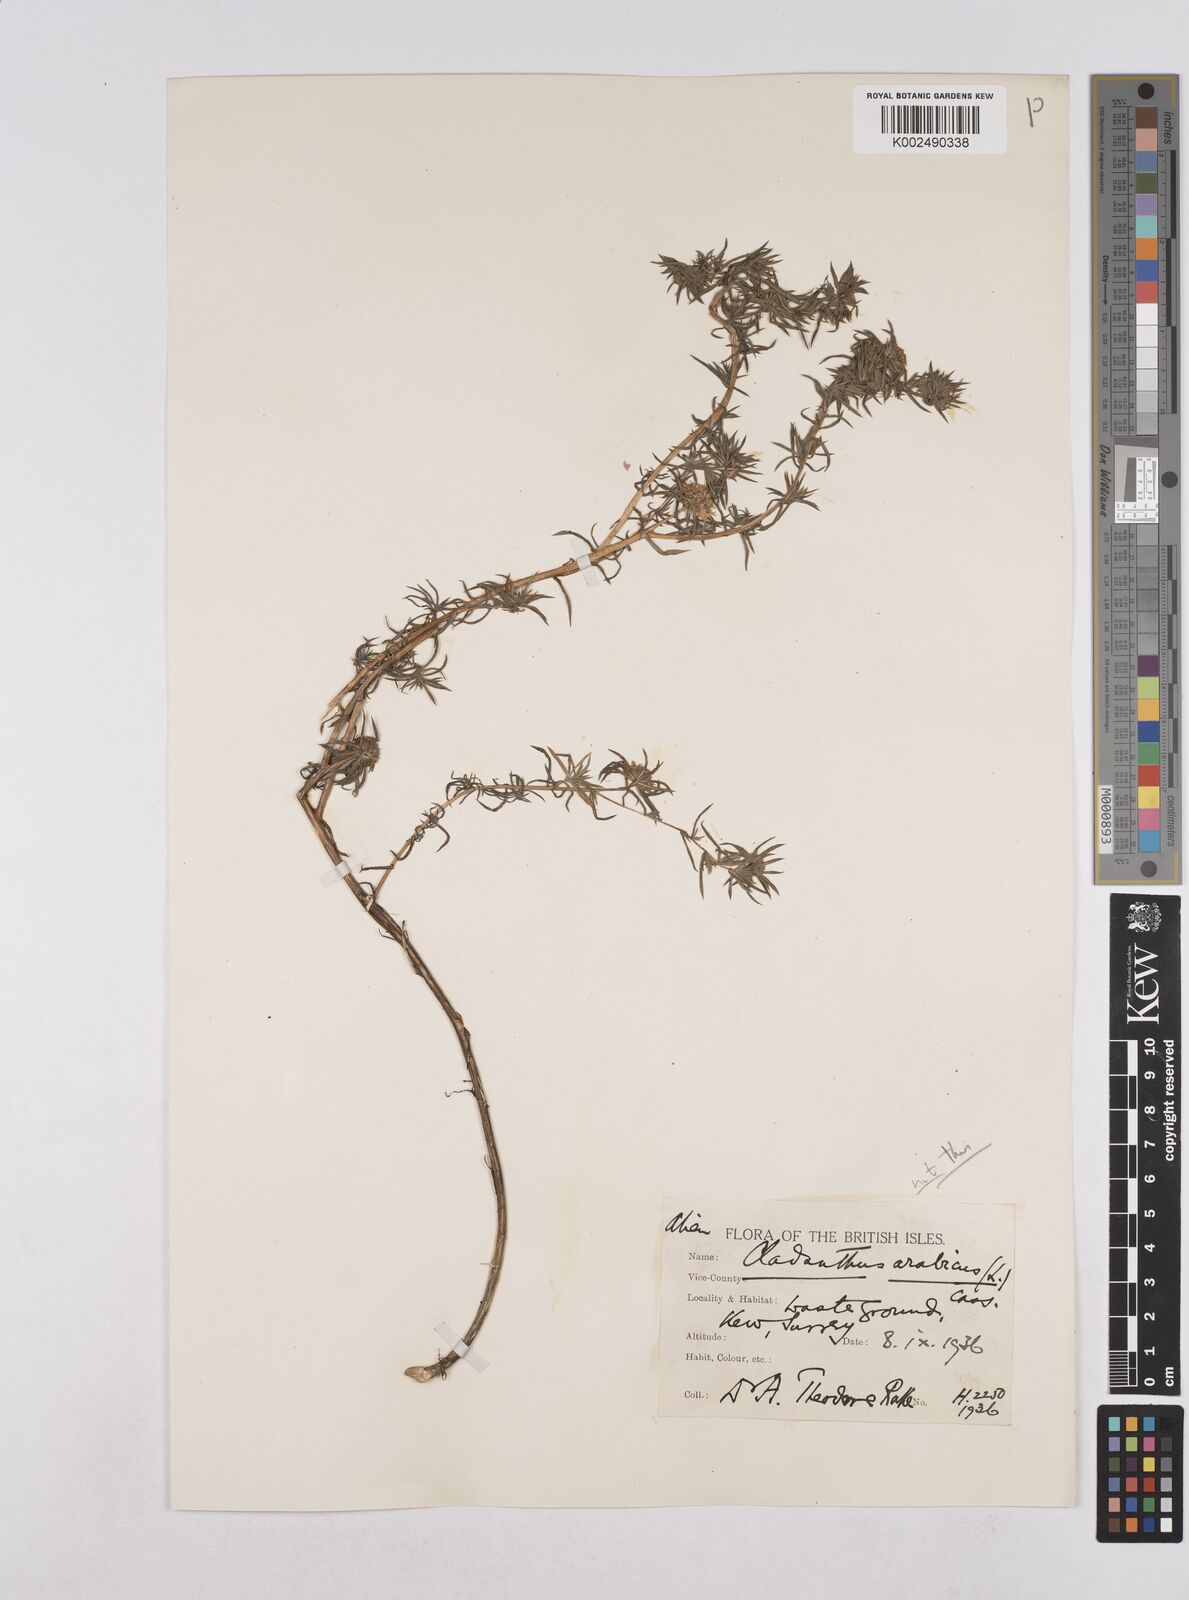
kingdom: Plantae
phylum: Tracheophyta
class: Magnoliopsida
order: Asterales
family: Asteraceae
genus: Cladanthus
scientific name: Cladanthus arabicus
